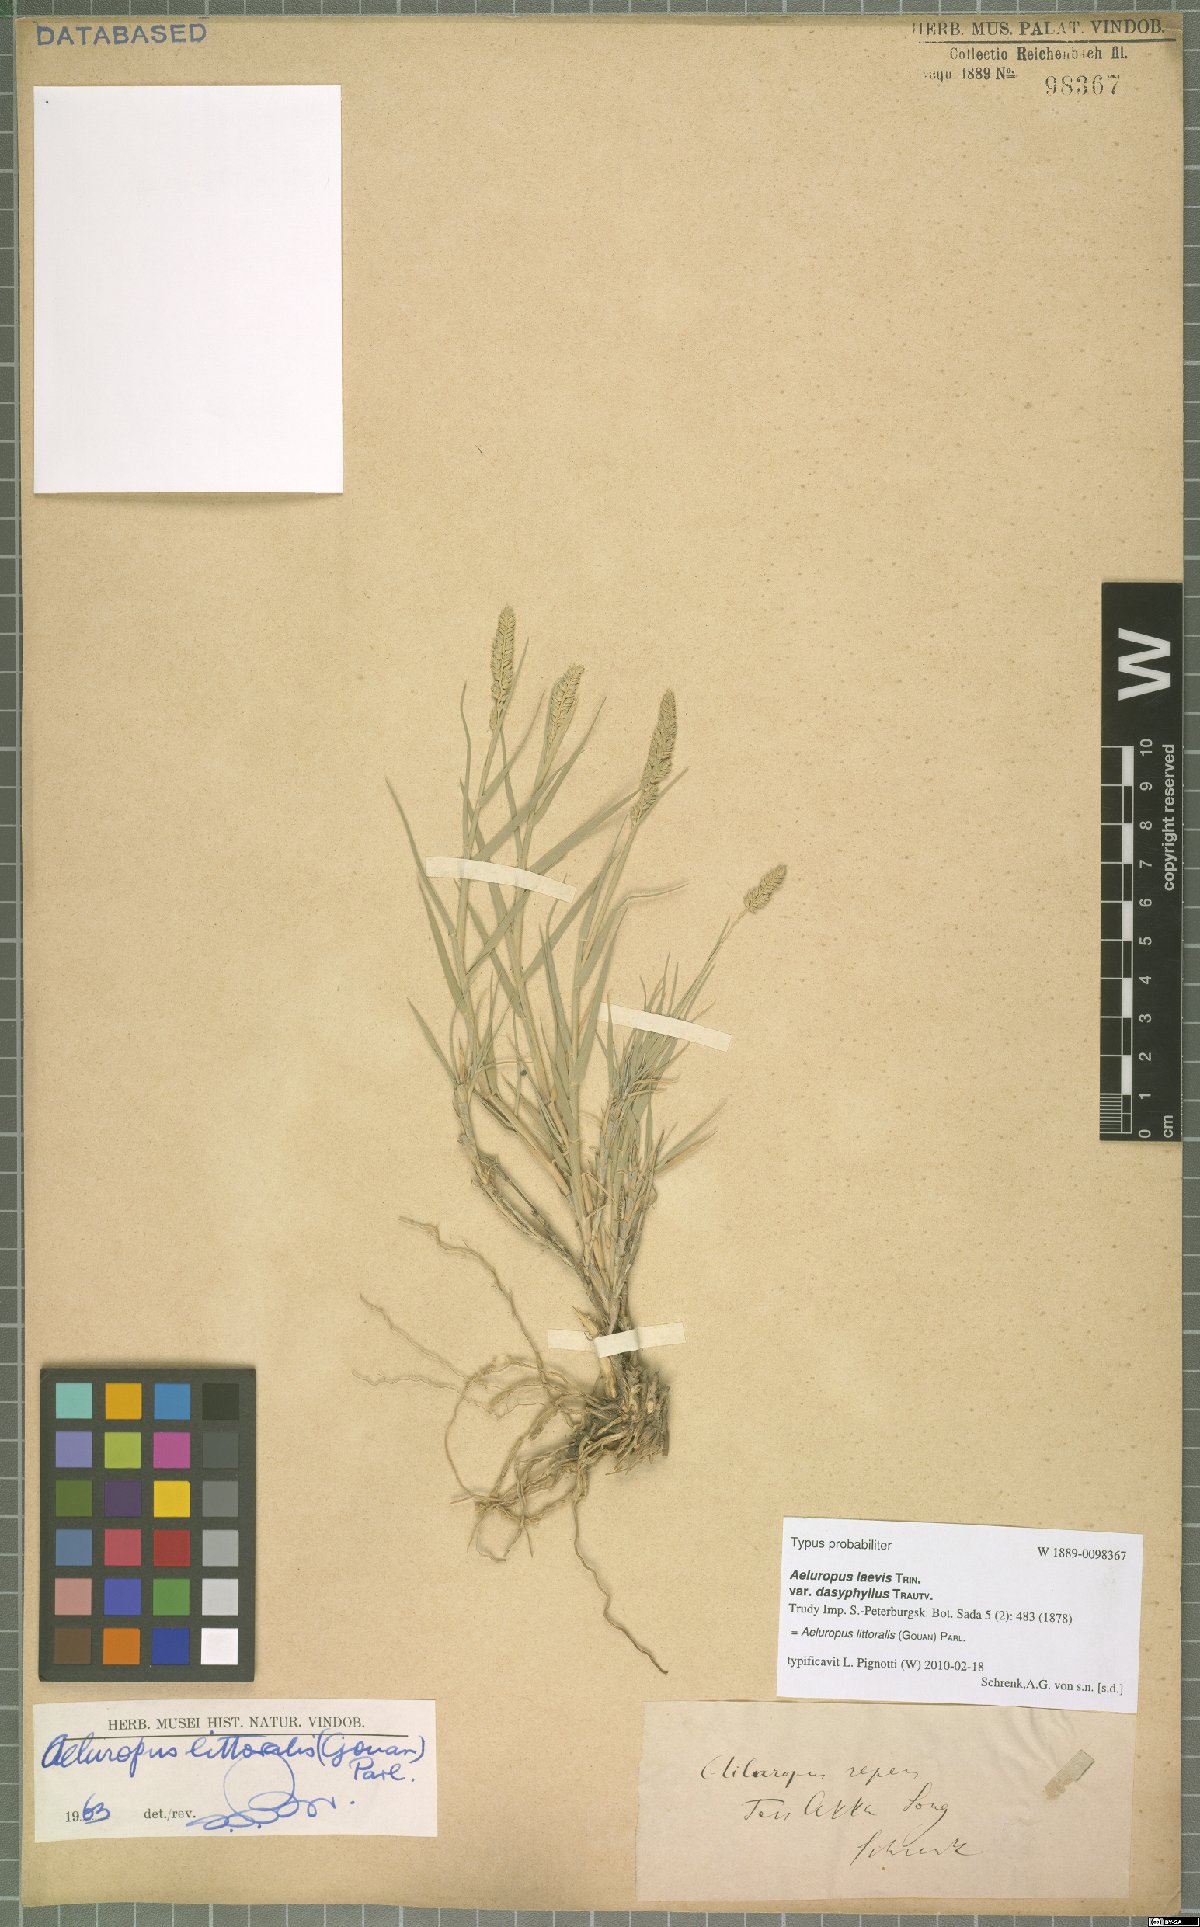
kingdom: Plantae
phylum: Tracheophyta
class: Liliopsida
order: Poales
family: Poaceae
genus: Aeluropus
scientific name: Aeluropus littoralis
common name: Indian walnut
